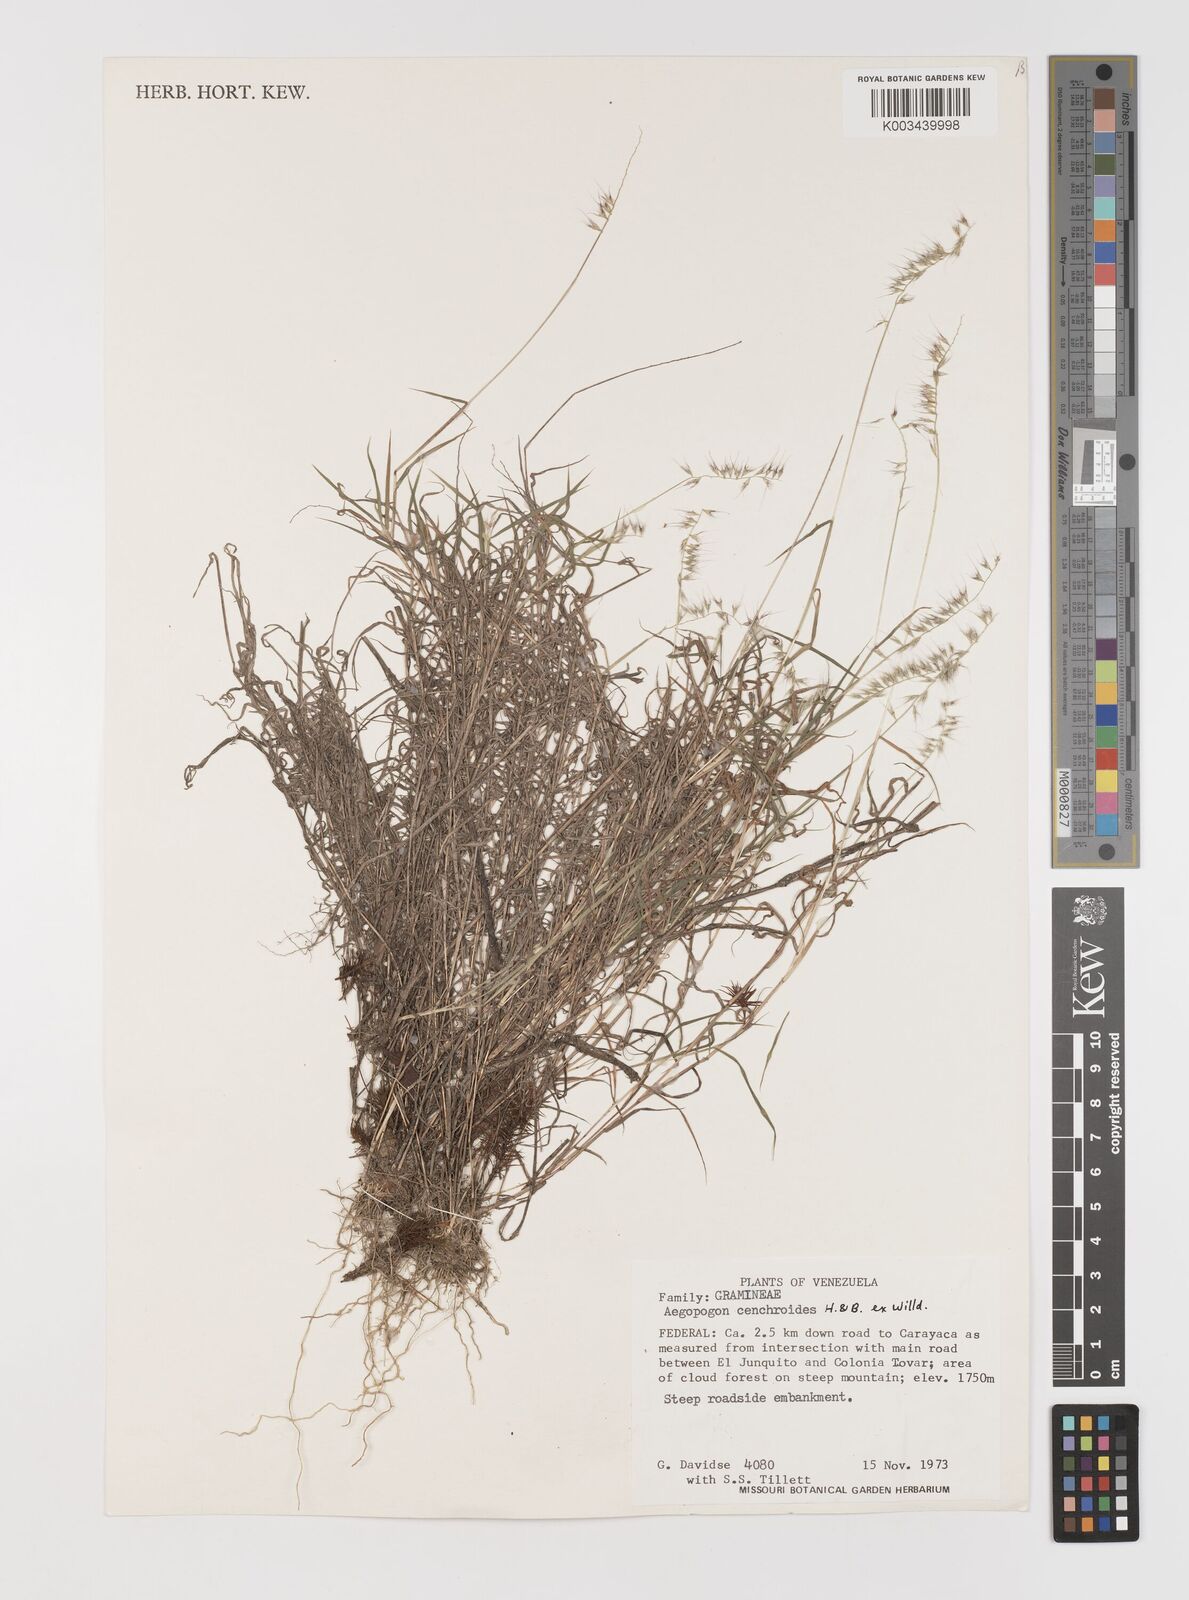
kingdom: Plantae
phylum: Tracheophyta
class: Liliopsida
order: Poales
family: Poaceae
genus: Muhlenbergia
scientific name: Muhlenbergia cenchroides
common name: Relaxgrass
